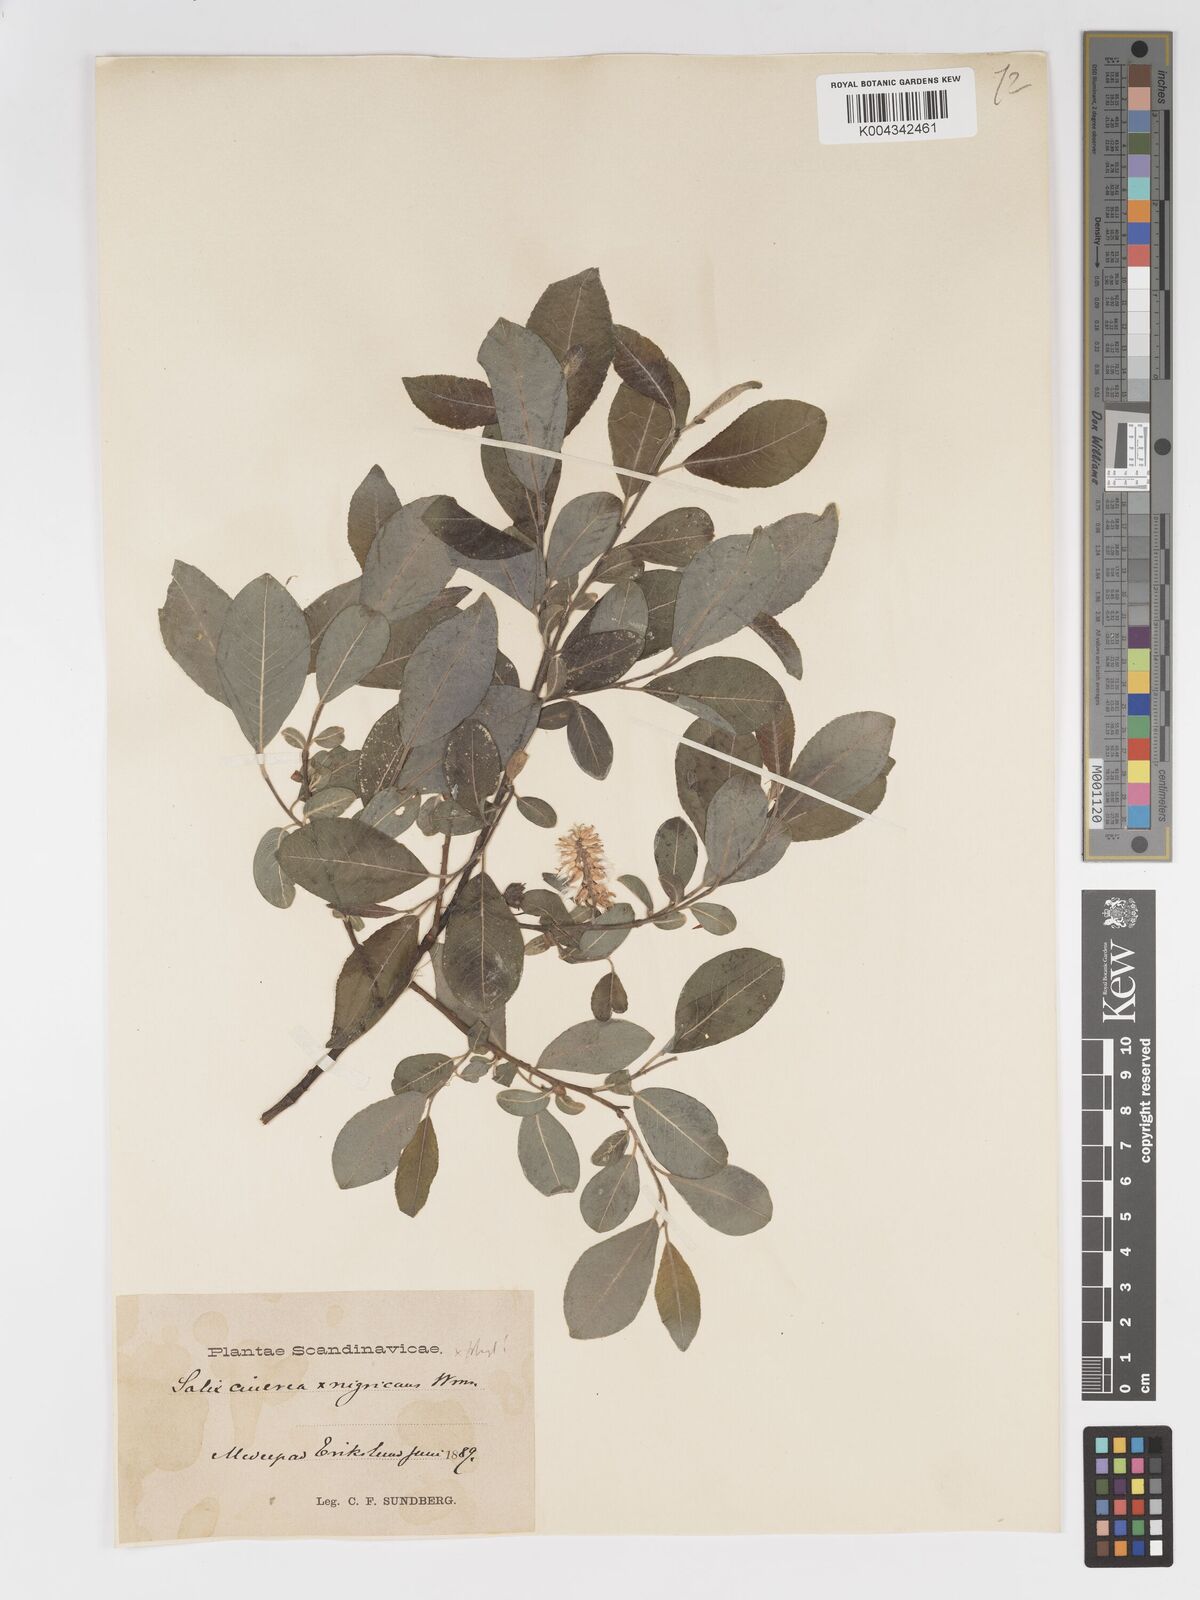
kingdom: Plantae
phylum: Tracheophyta
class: Magnoliopsida
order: Malpighiales
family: Salicaceae
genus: Salix
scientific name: Salix
